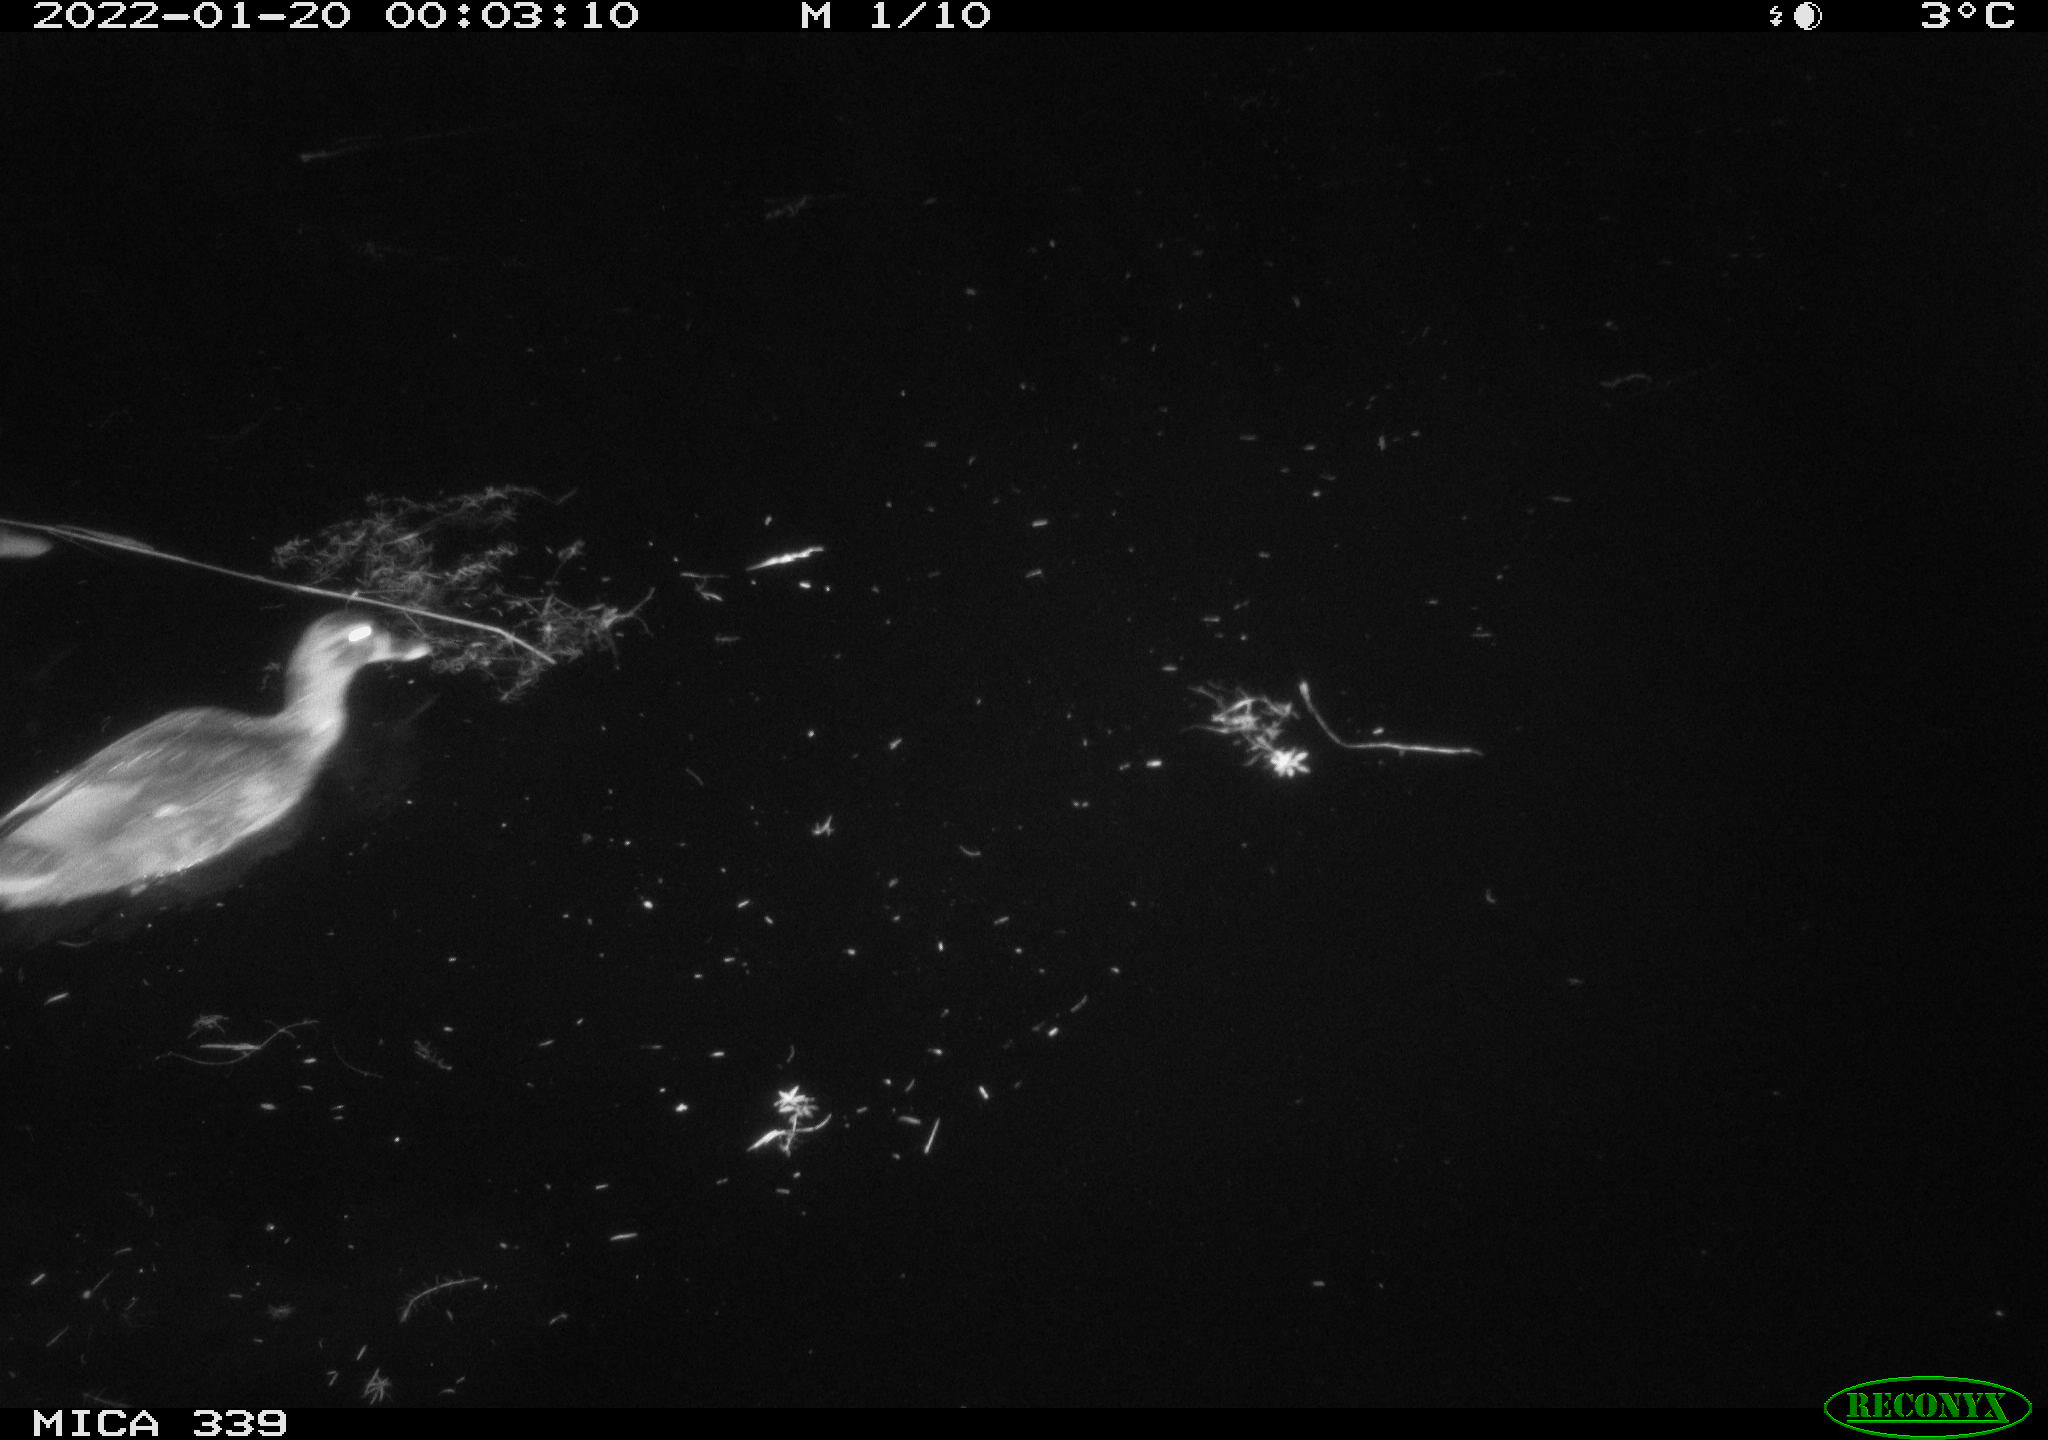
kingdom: Animalia
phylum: Chordata
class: Aves
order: Anseriformes
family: Anatidae
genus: Anas
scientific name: Anas platyrhynchos
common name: Mallard
